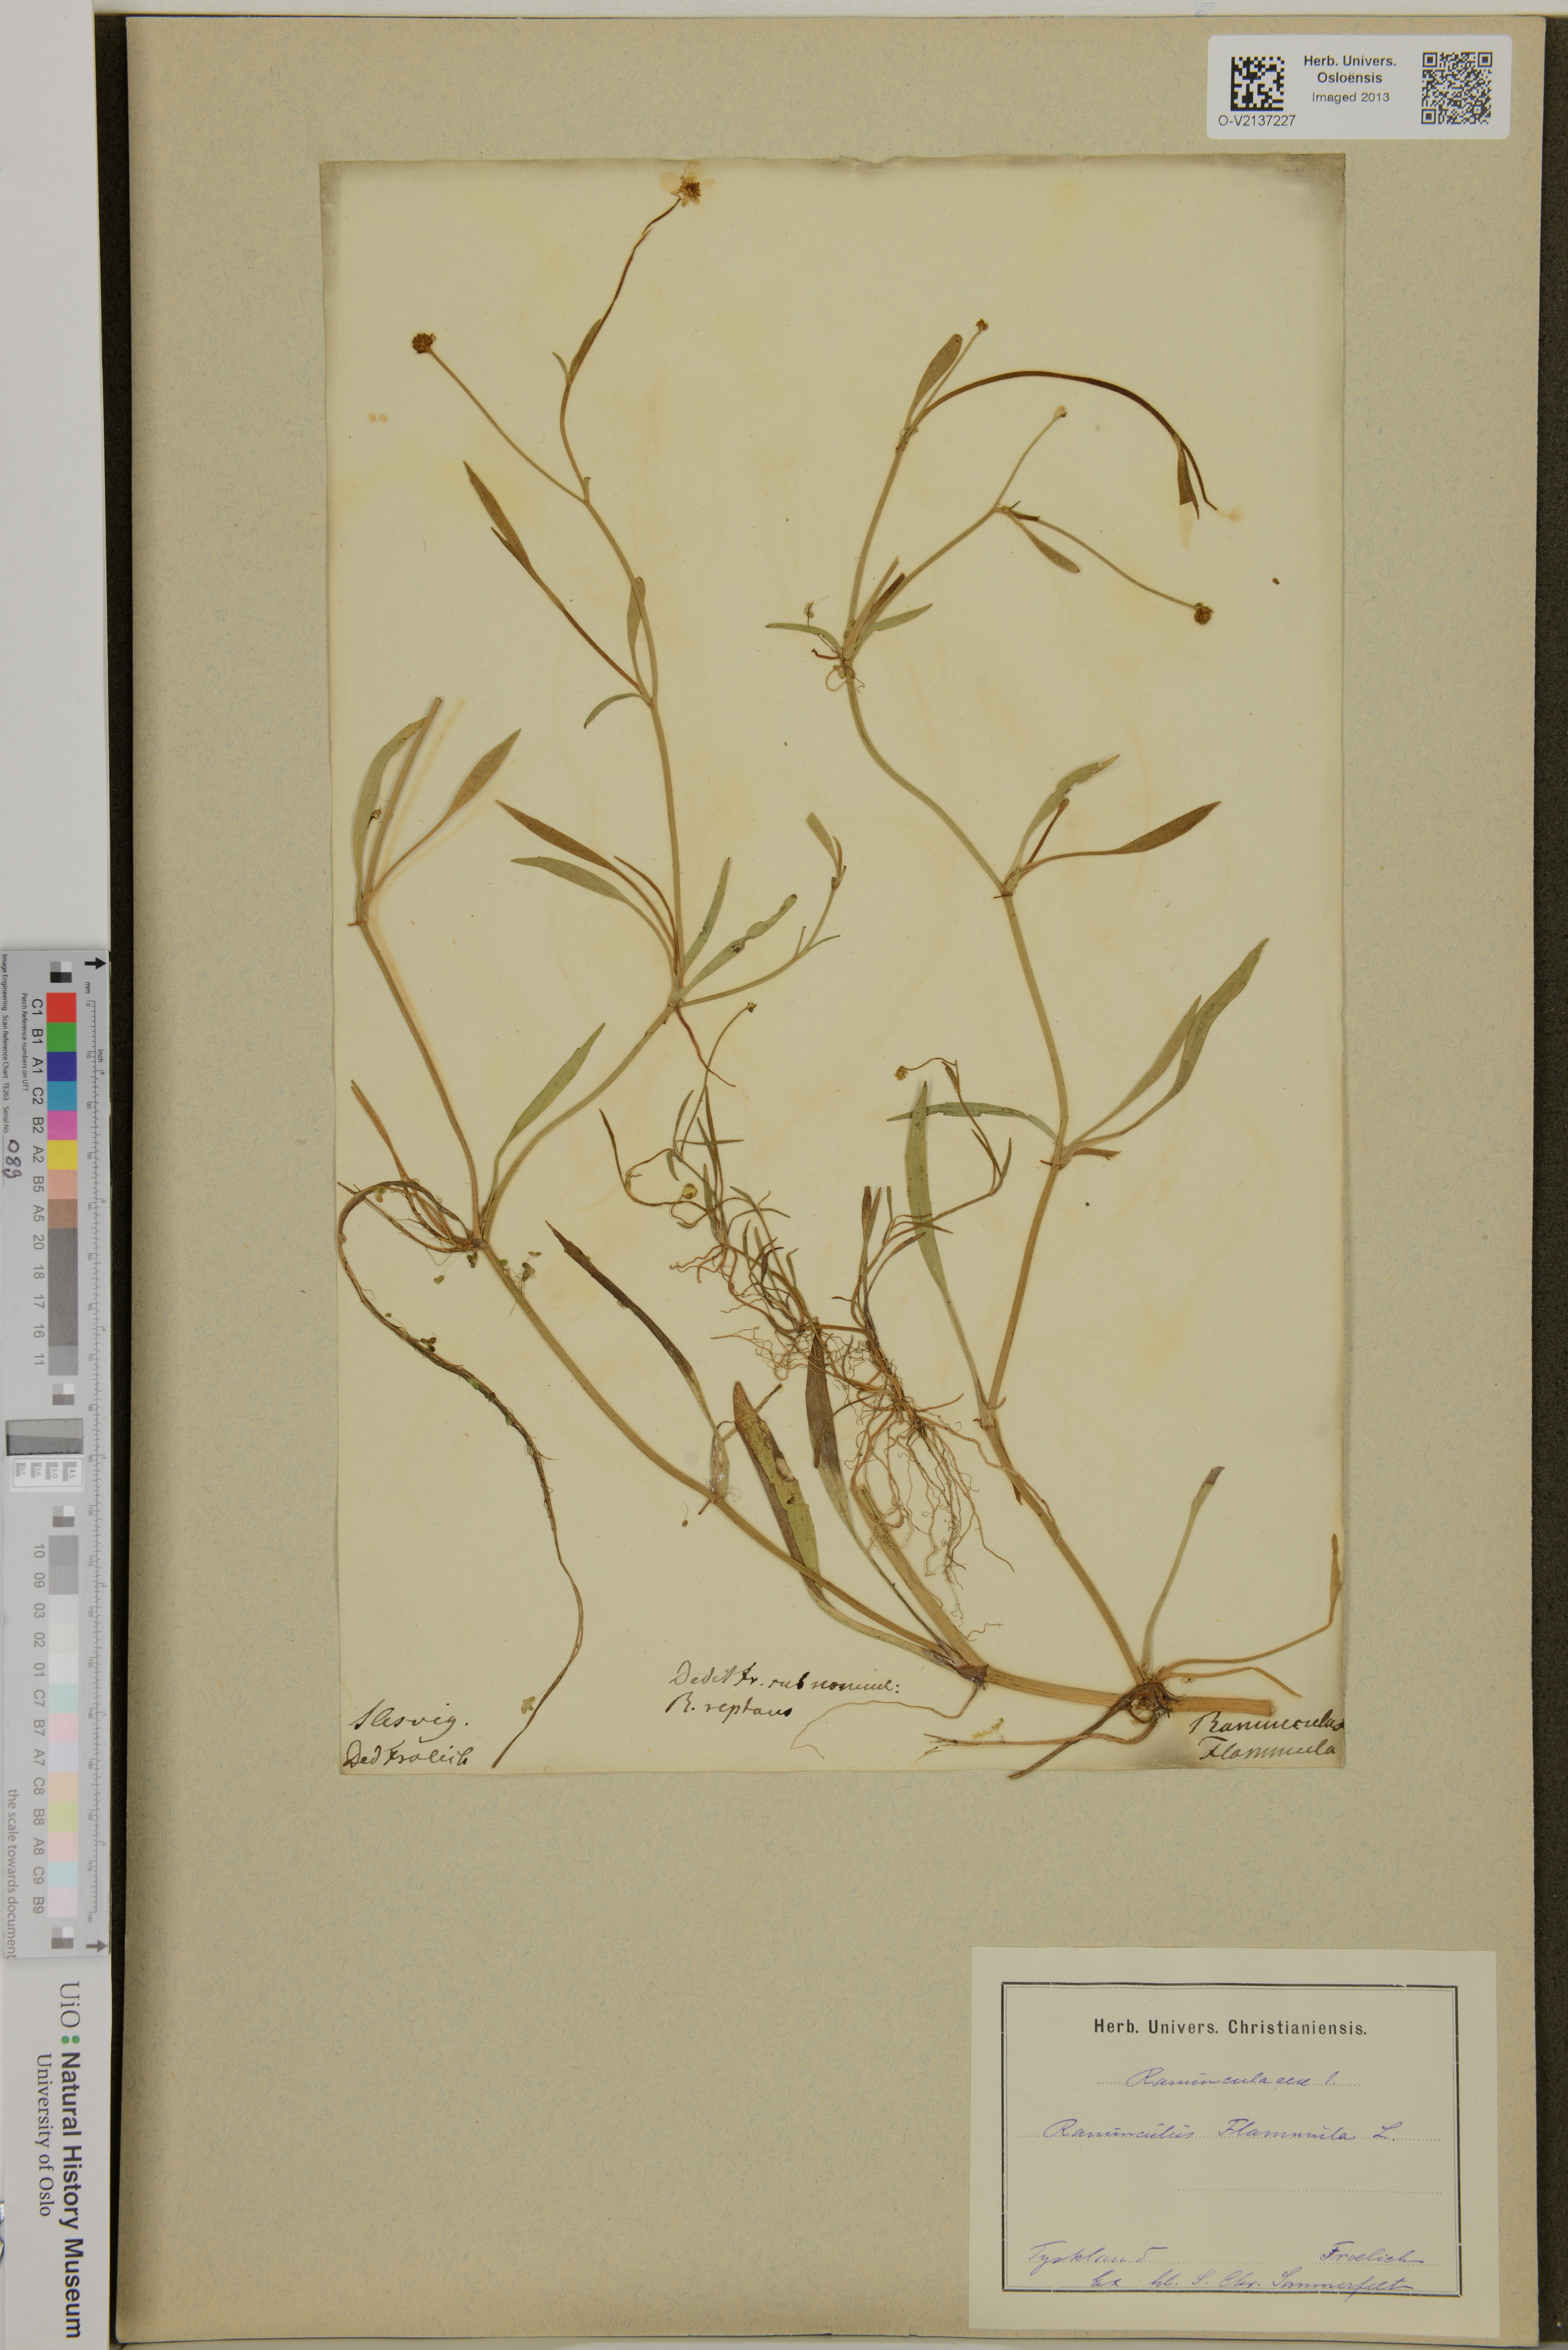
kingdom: Plantae
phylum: Tracheophyta
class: Magnoliopsida
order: Ranunculales
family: Ranunculaceae
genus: Ranunculus
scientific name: Ranunculus flammula
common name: Lesser spearwort
